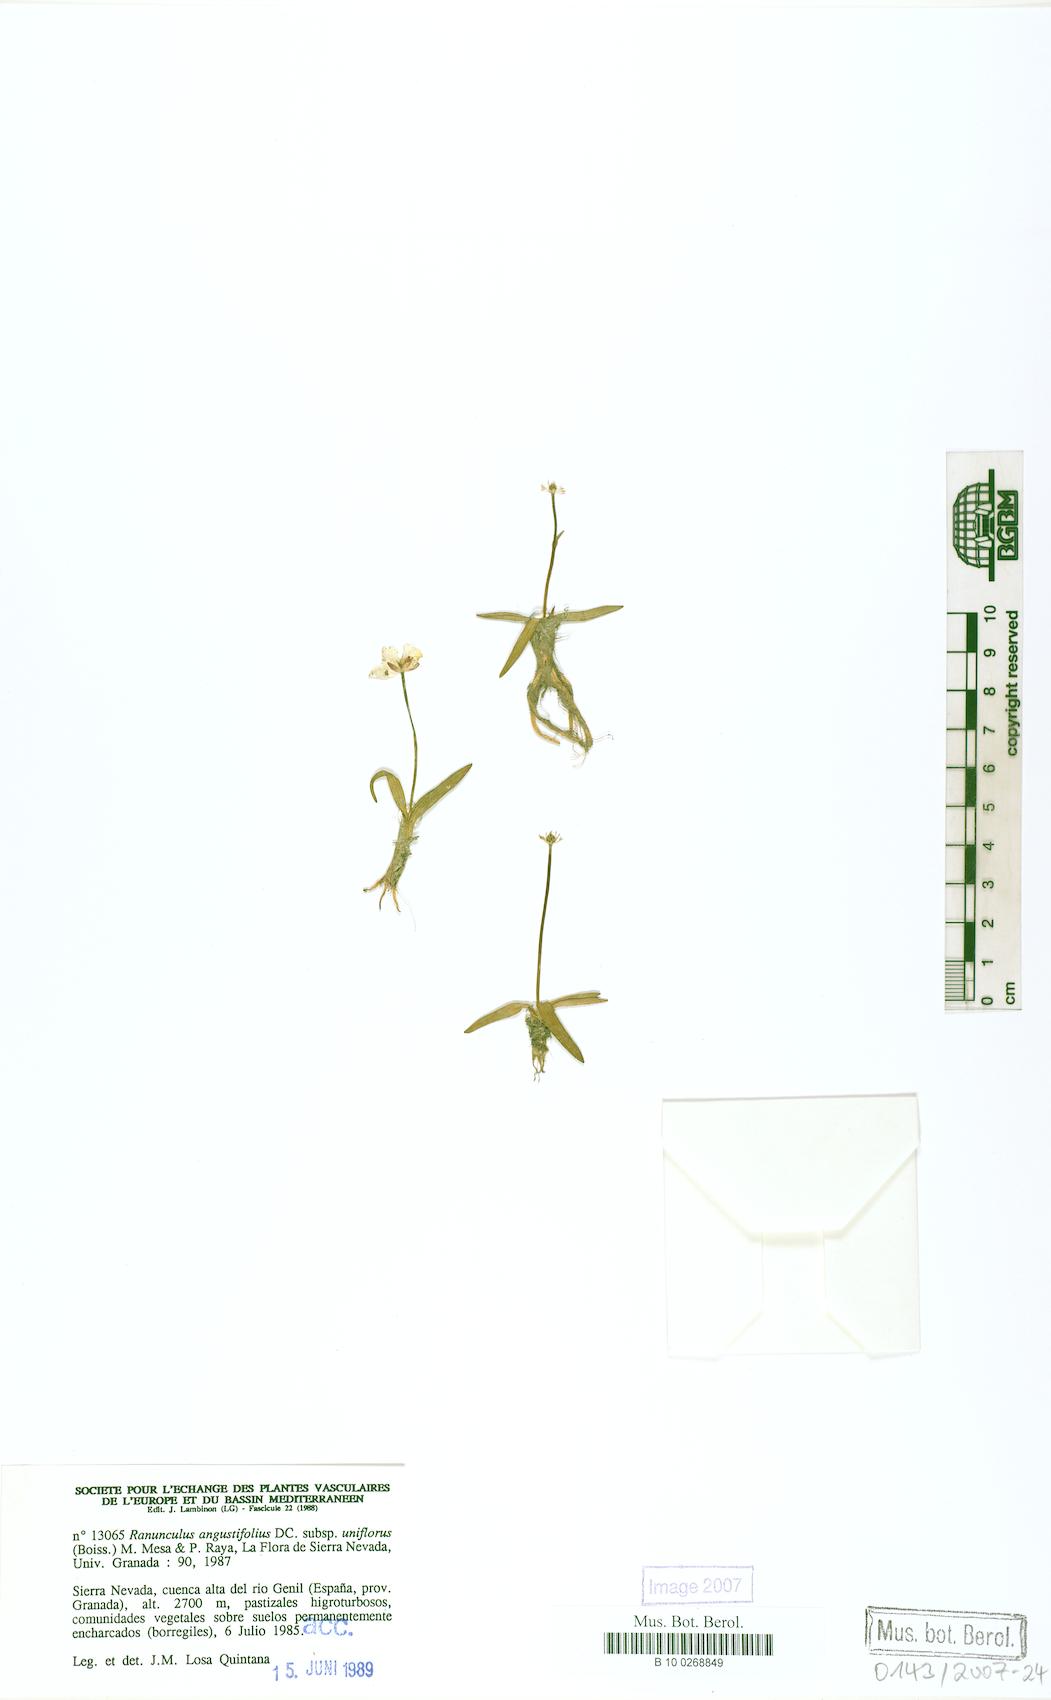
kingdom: Plantae
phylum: Tracheophyta
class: Magnoliopsida
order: Ranunculales
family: Ranunculaceae
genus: Ranunculus
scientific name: Ranunculus angustifolius
